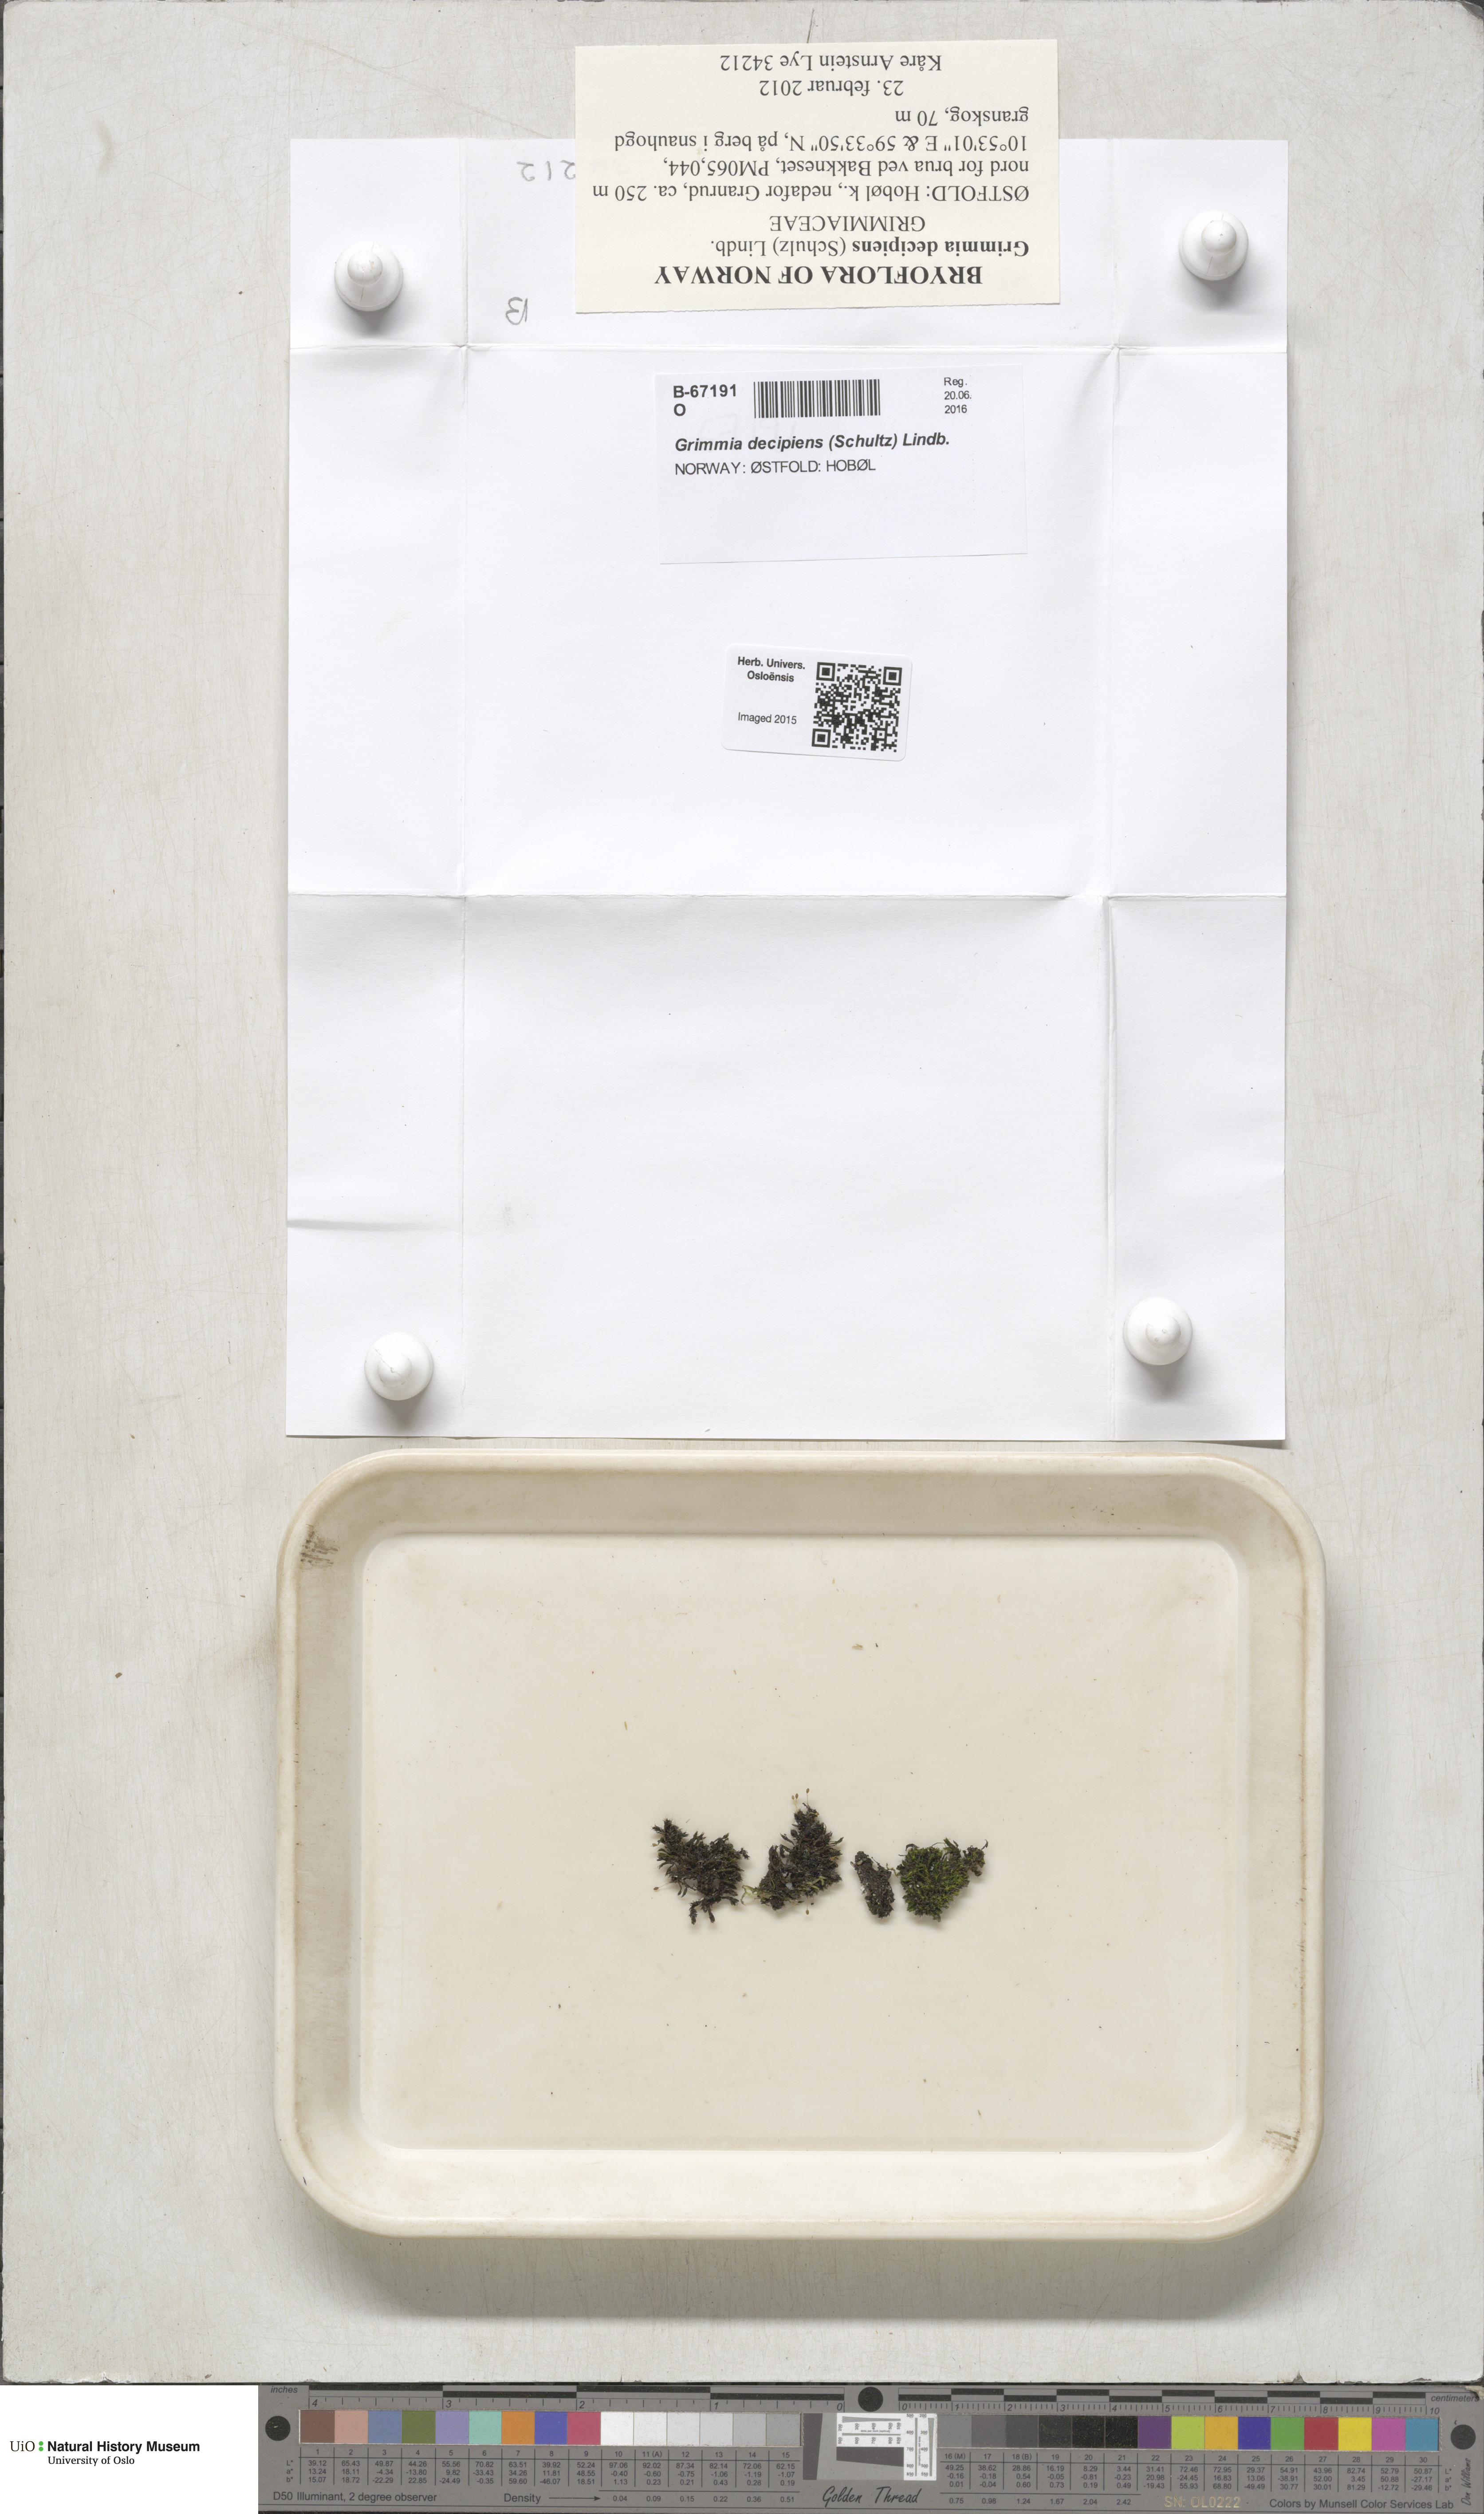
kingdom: Plantae
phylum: Bryophyta
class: Bryopsida
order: Grimmiales
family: Grimmiaceae
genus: Grimmia
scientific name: Grimmia decipiens
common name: Great grimmia
